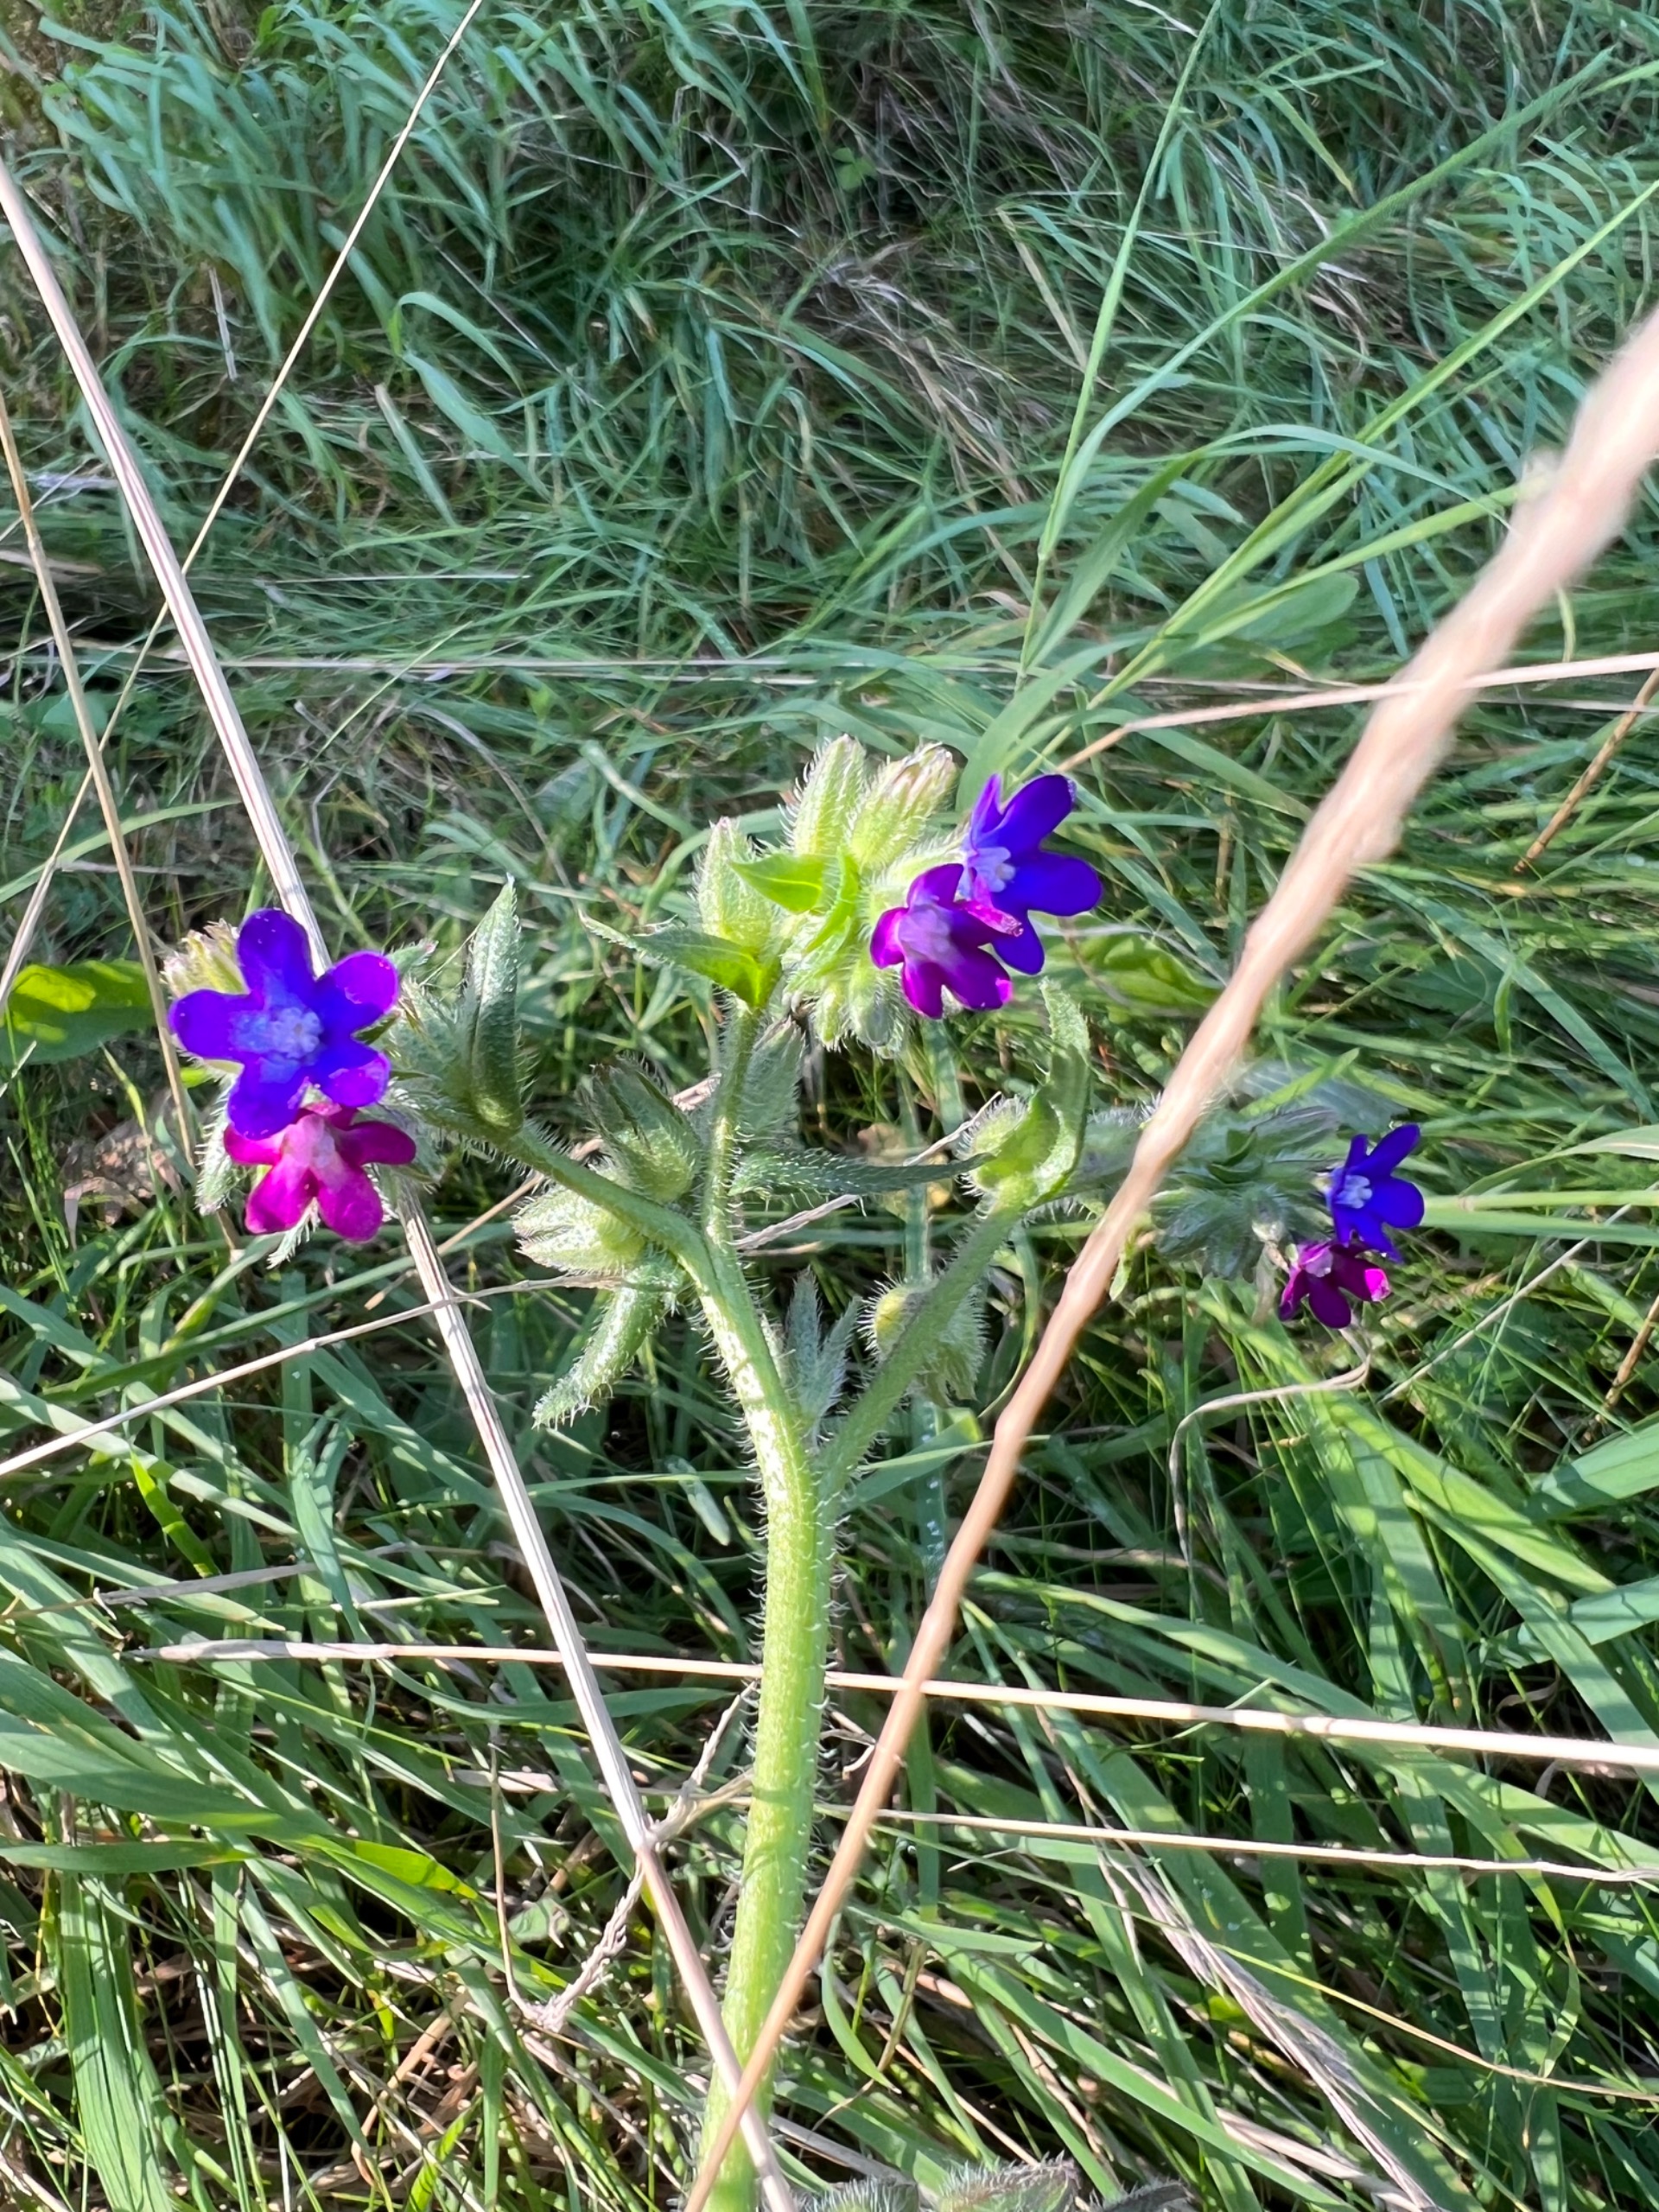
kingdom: Plantae
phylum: Tracheophyta
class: Magnoliopsida
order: Boraginales
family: Boraginaceae
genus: Anchusa
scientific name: Anchusa officinalis
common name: Læge-oksetunge
